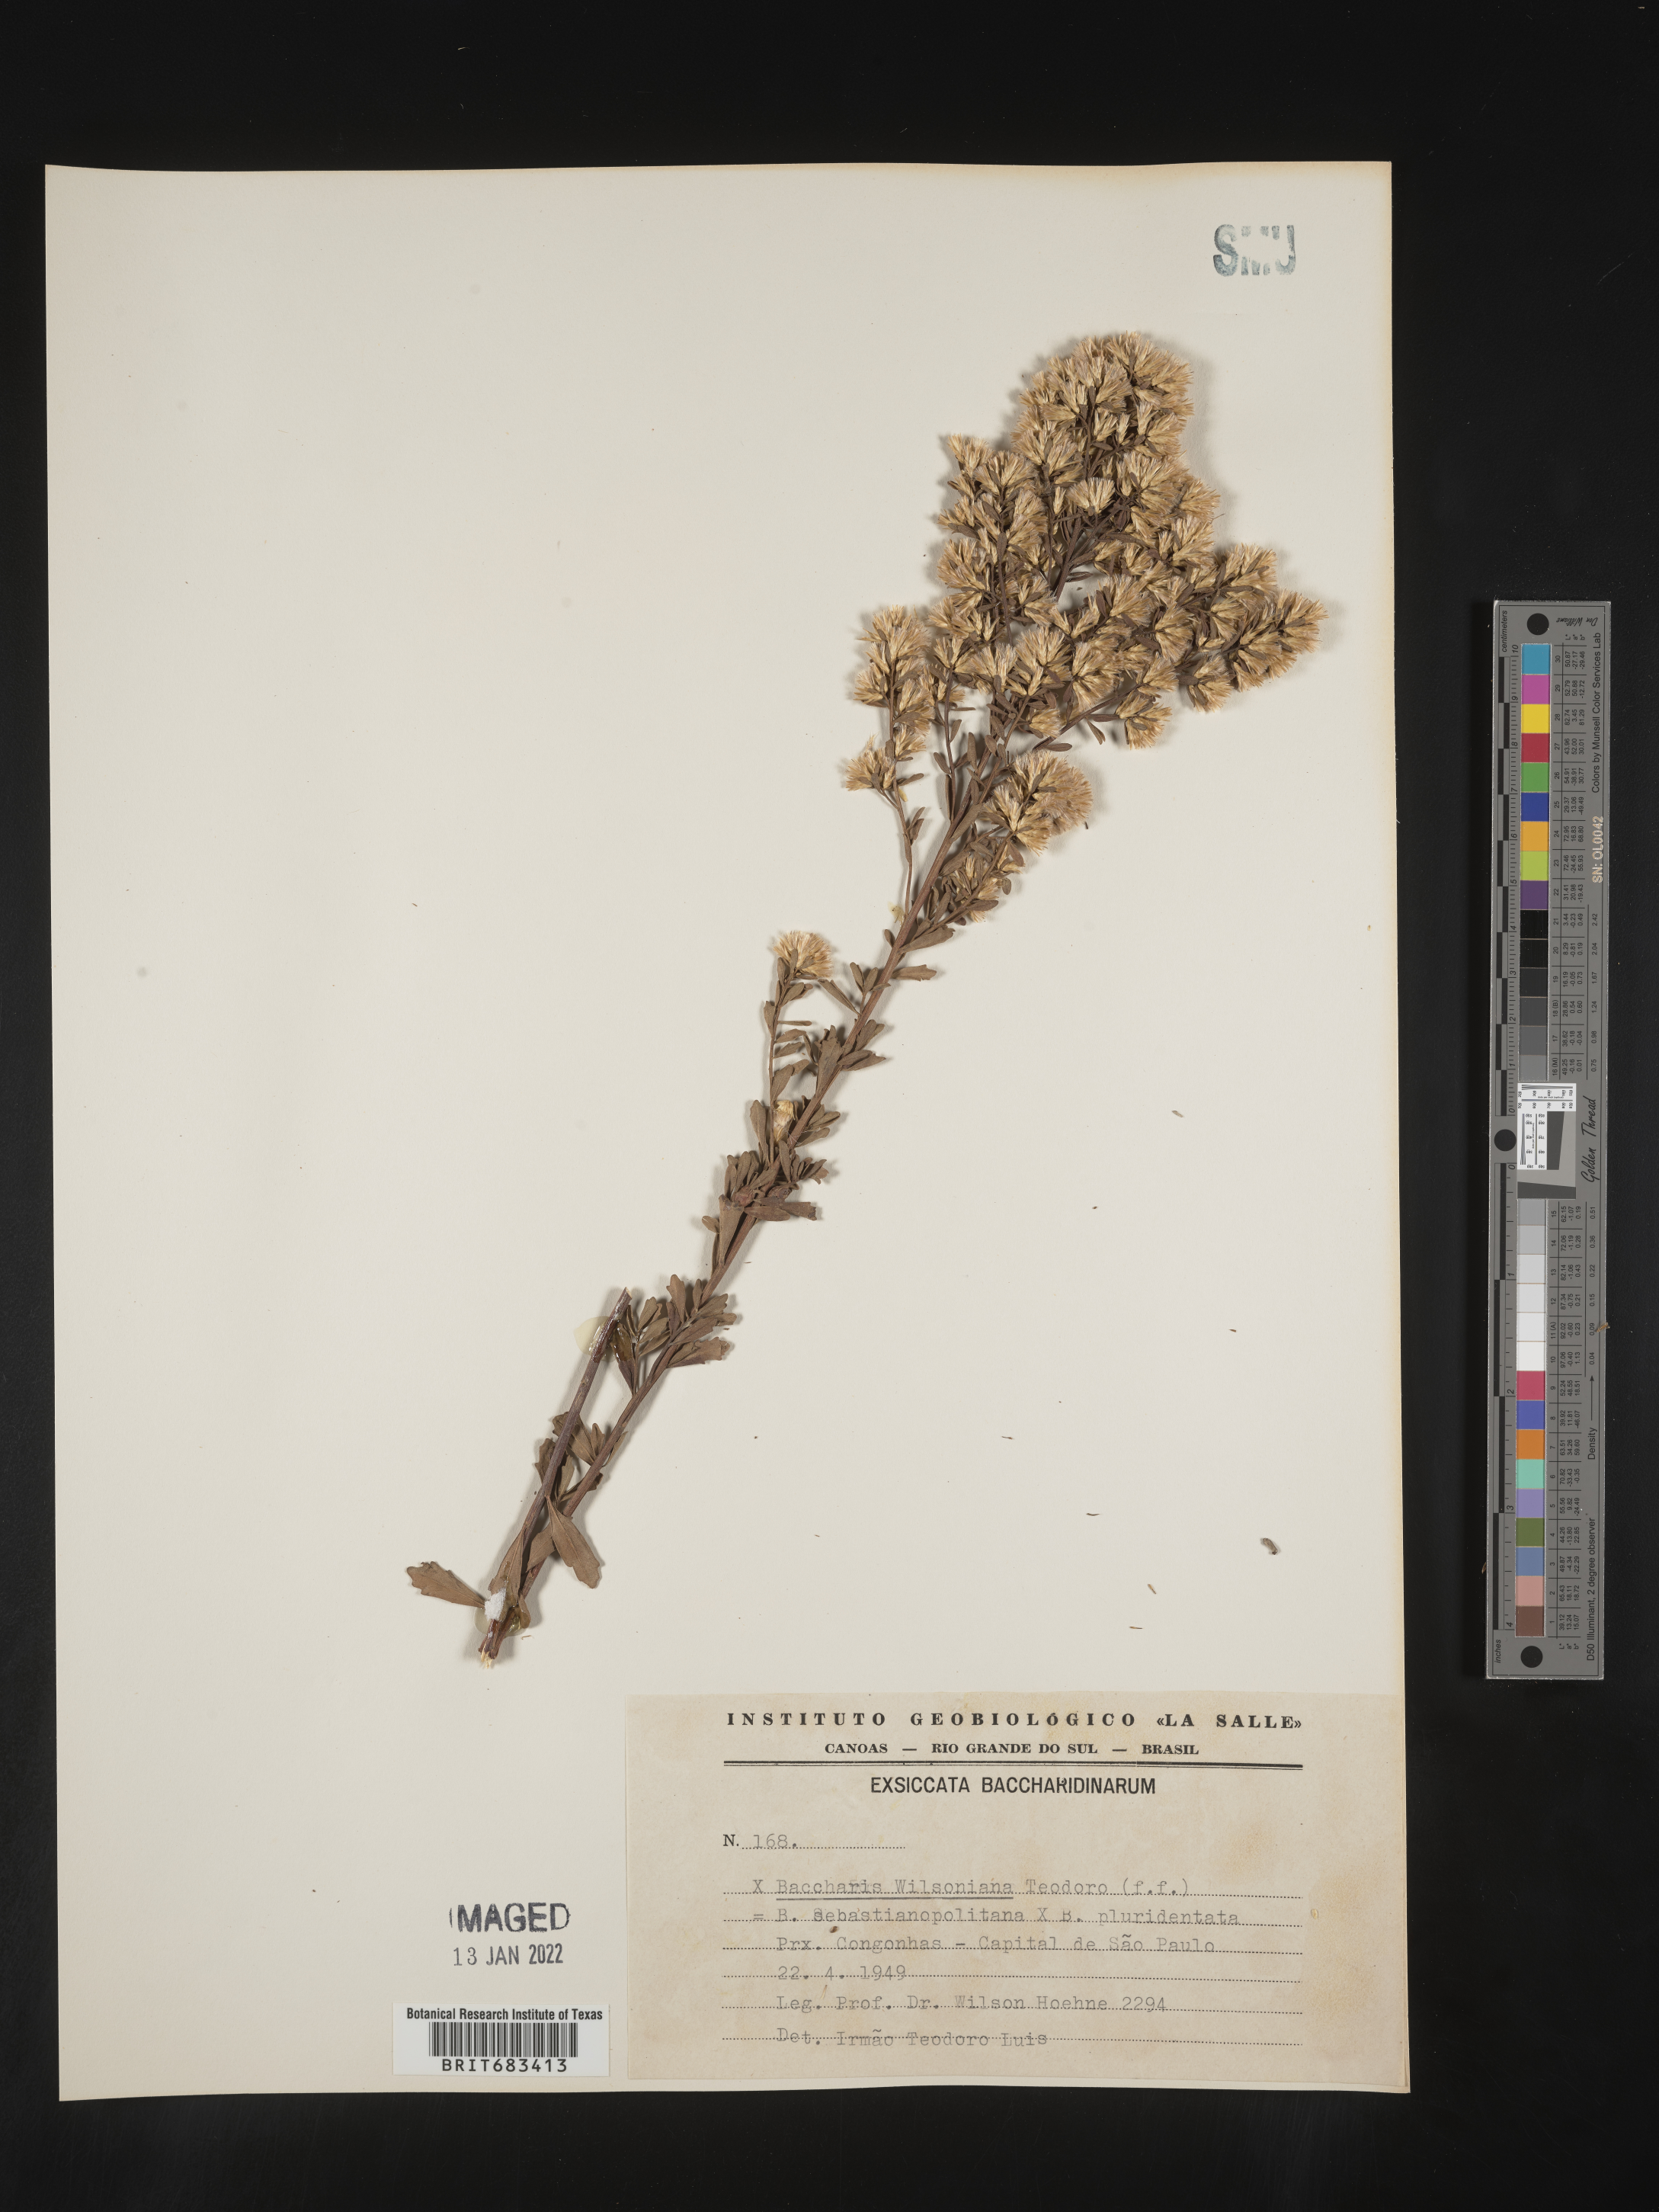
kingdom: Plantae
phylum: Tracheophyta
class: Magnoliopsida
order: Asterales
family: Asteraceae
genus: Baccharis
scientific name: Baccharis
